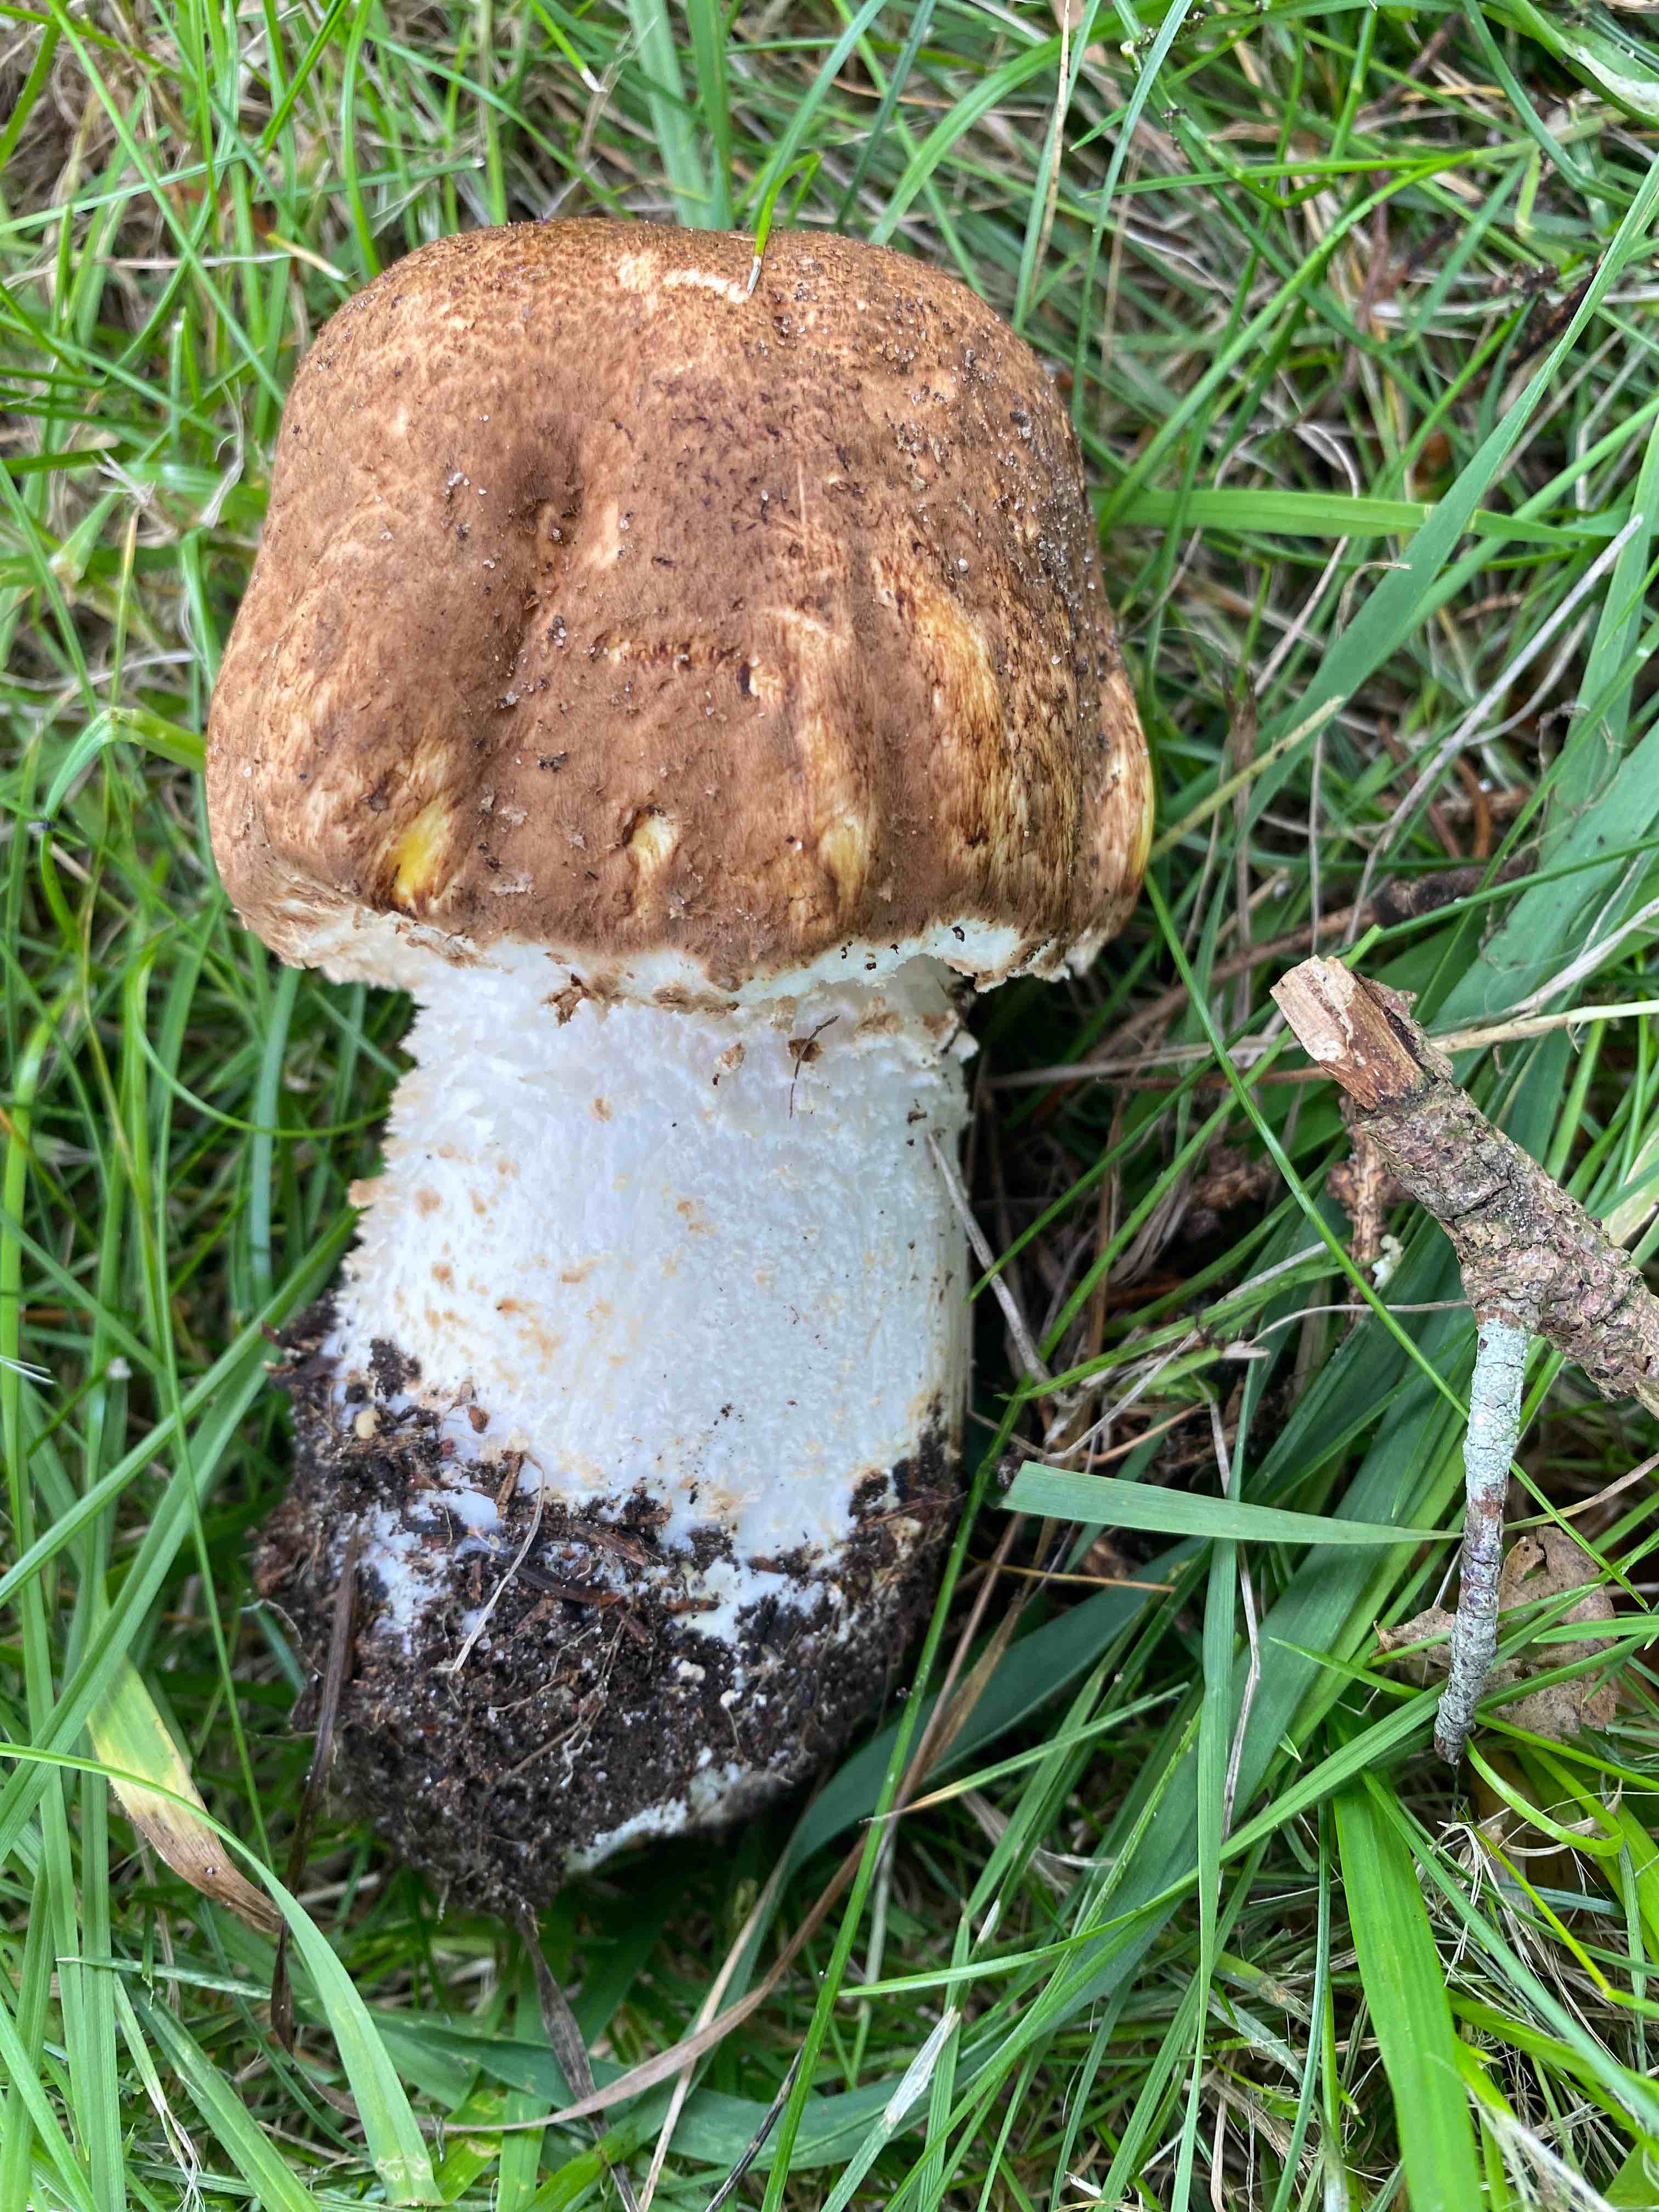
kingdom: Fungi
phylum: Basidiomycota
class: Agaricomycetes
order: Agaricales
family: Agaricaceae
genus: Agaricus
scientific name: Agaricus augustus
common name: prægtig champignon
